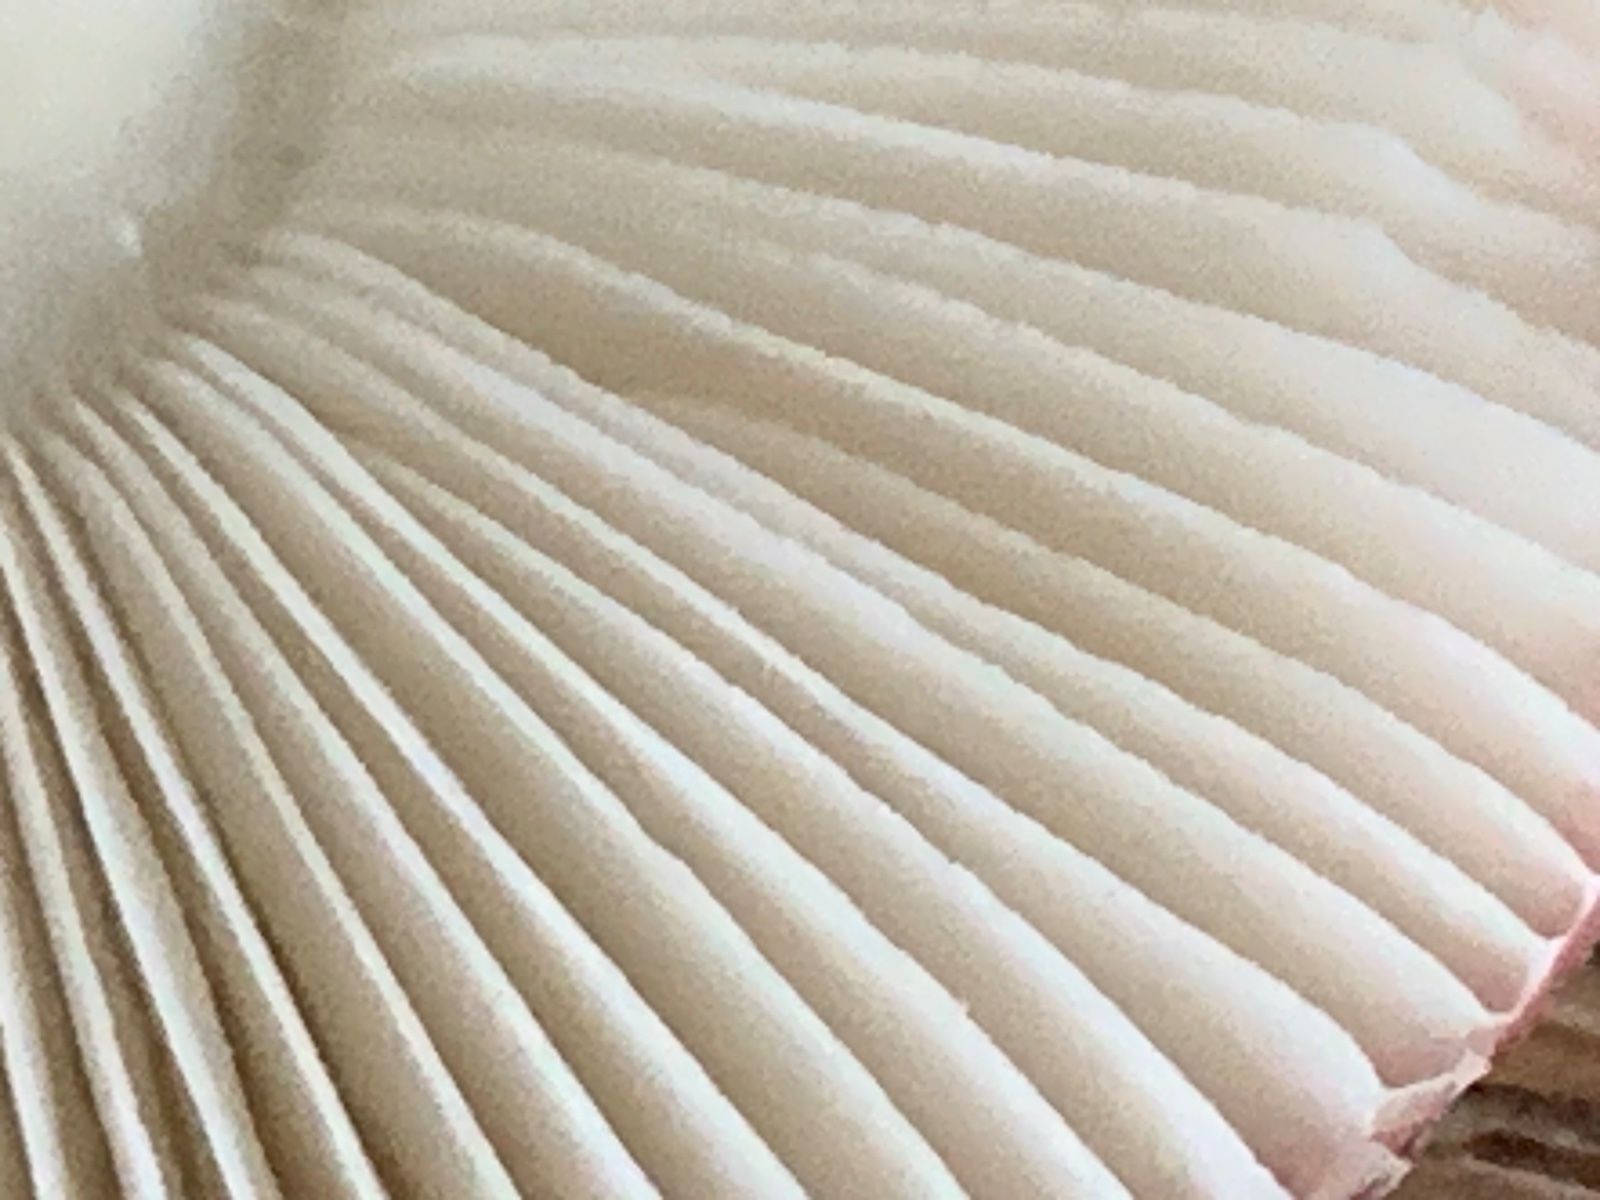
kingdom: Fungi
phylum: Basidiomycota
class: Agaricomycetes
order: Russulales
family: Russulaceae
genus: Russula
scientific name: Russula fragilis
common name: savbladet skørhat
